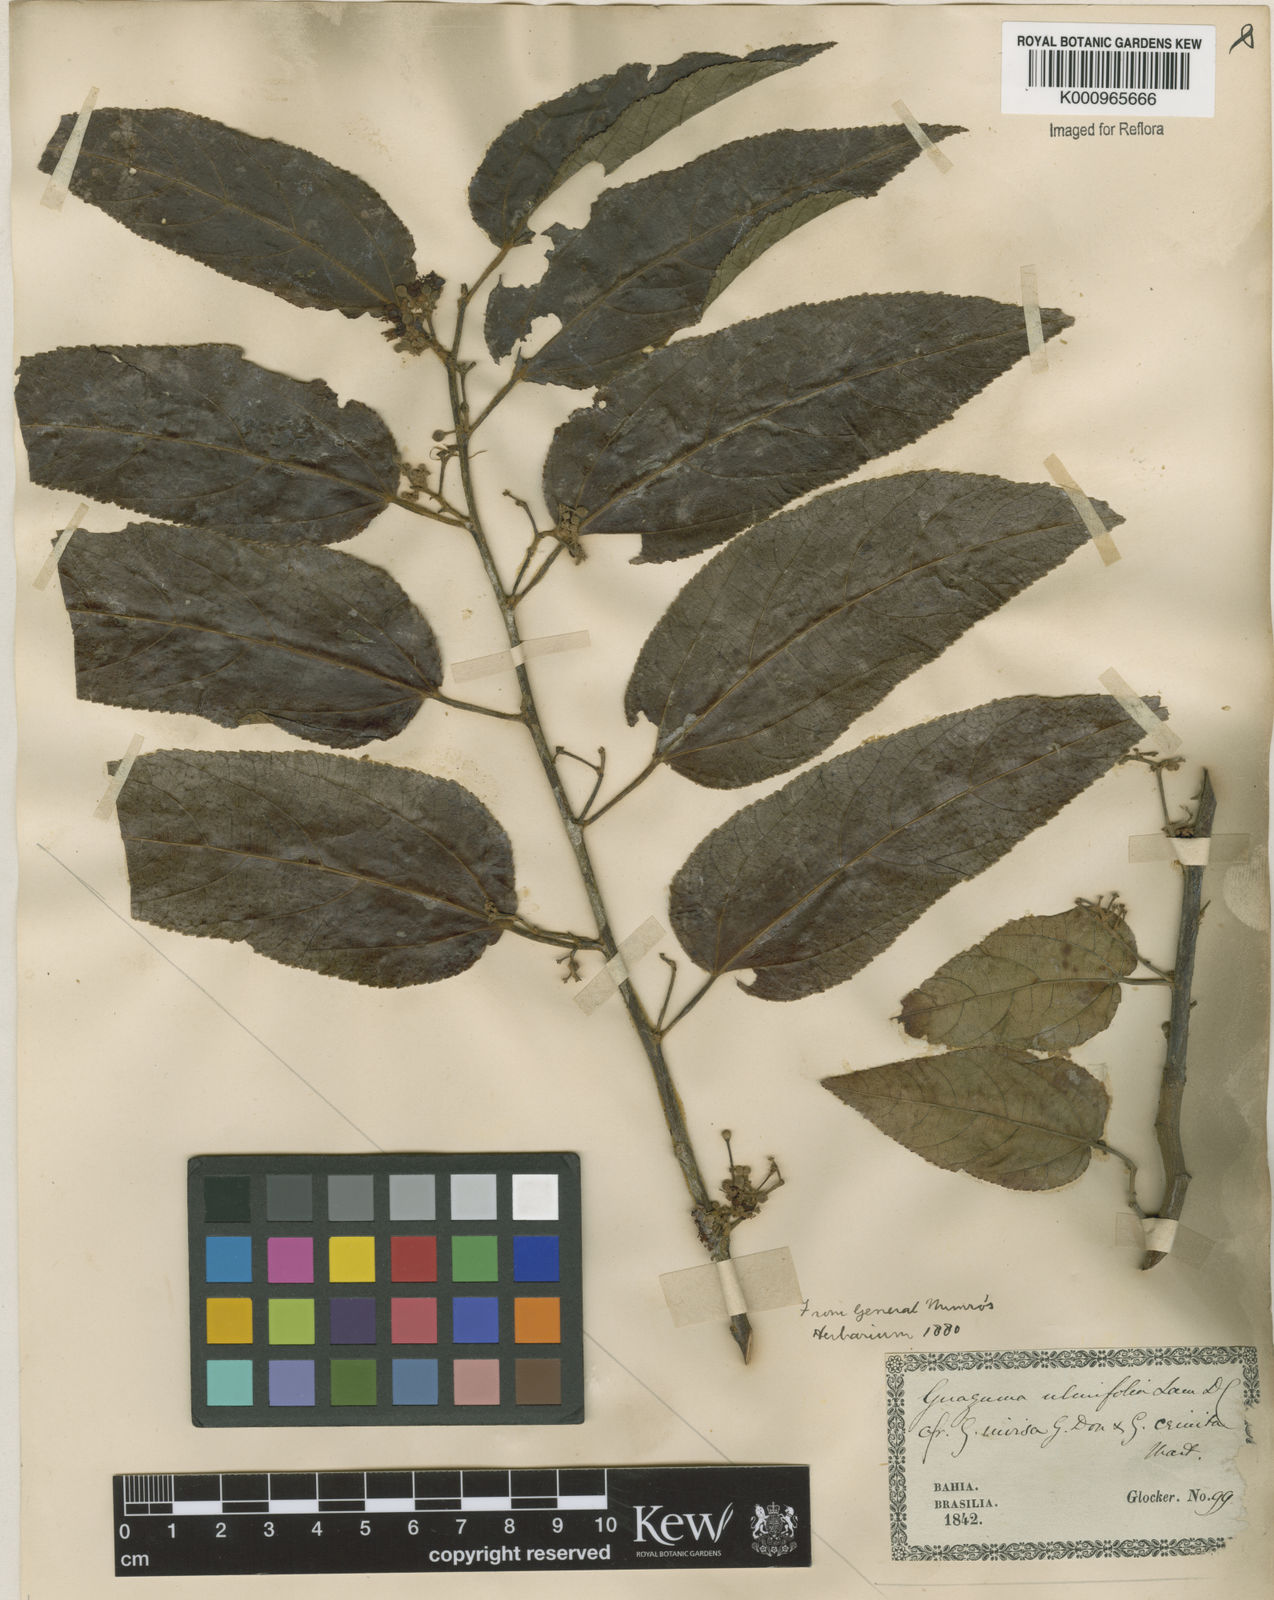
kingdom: Plantae
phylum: Tracheophyta
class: Magnoliopsida
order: Malvales
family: Malvaceae
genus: Guazuma
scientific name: Guazuma ulmifolia
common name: Bastard-cedar
